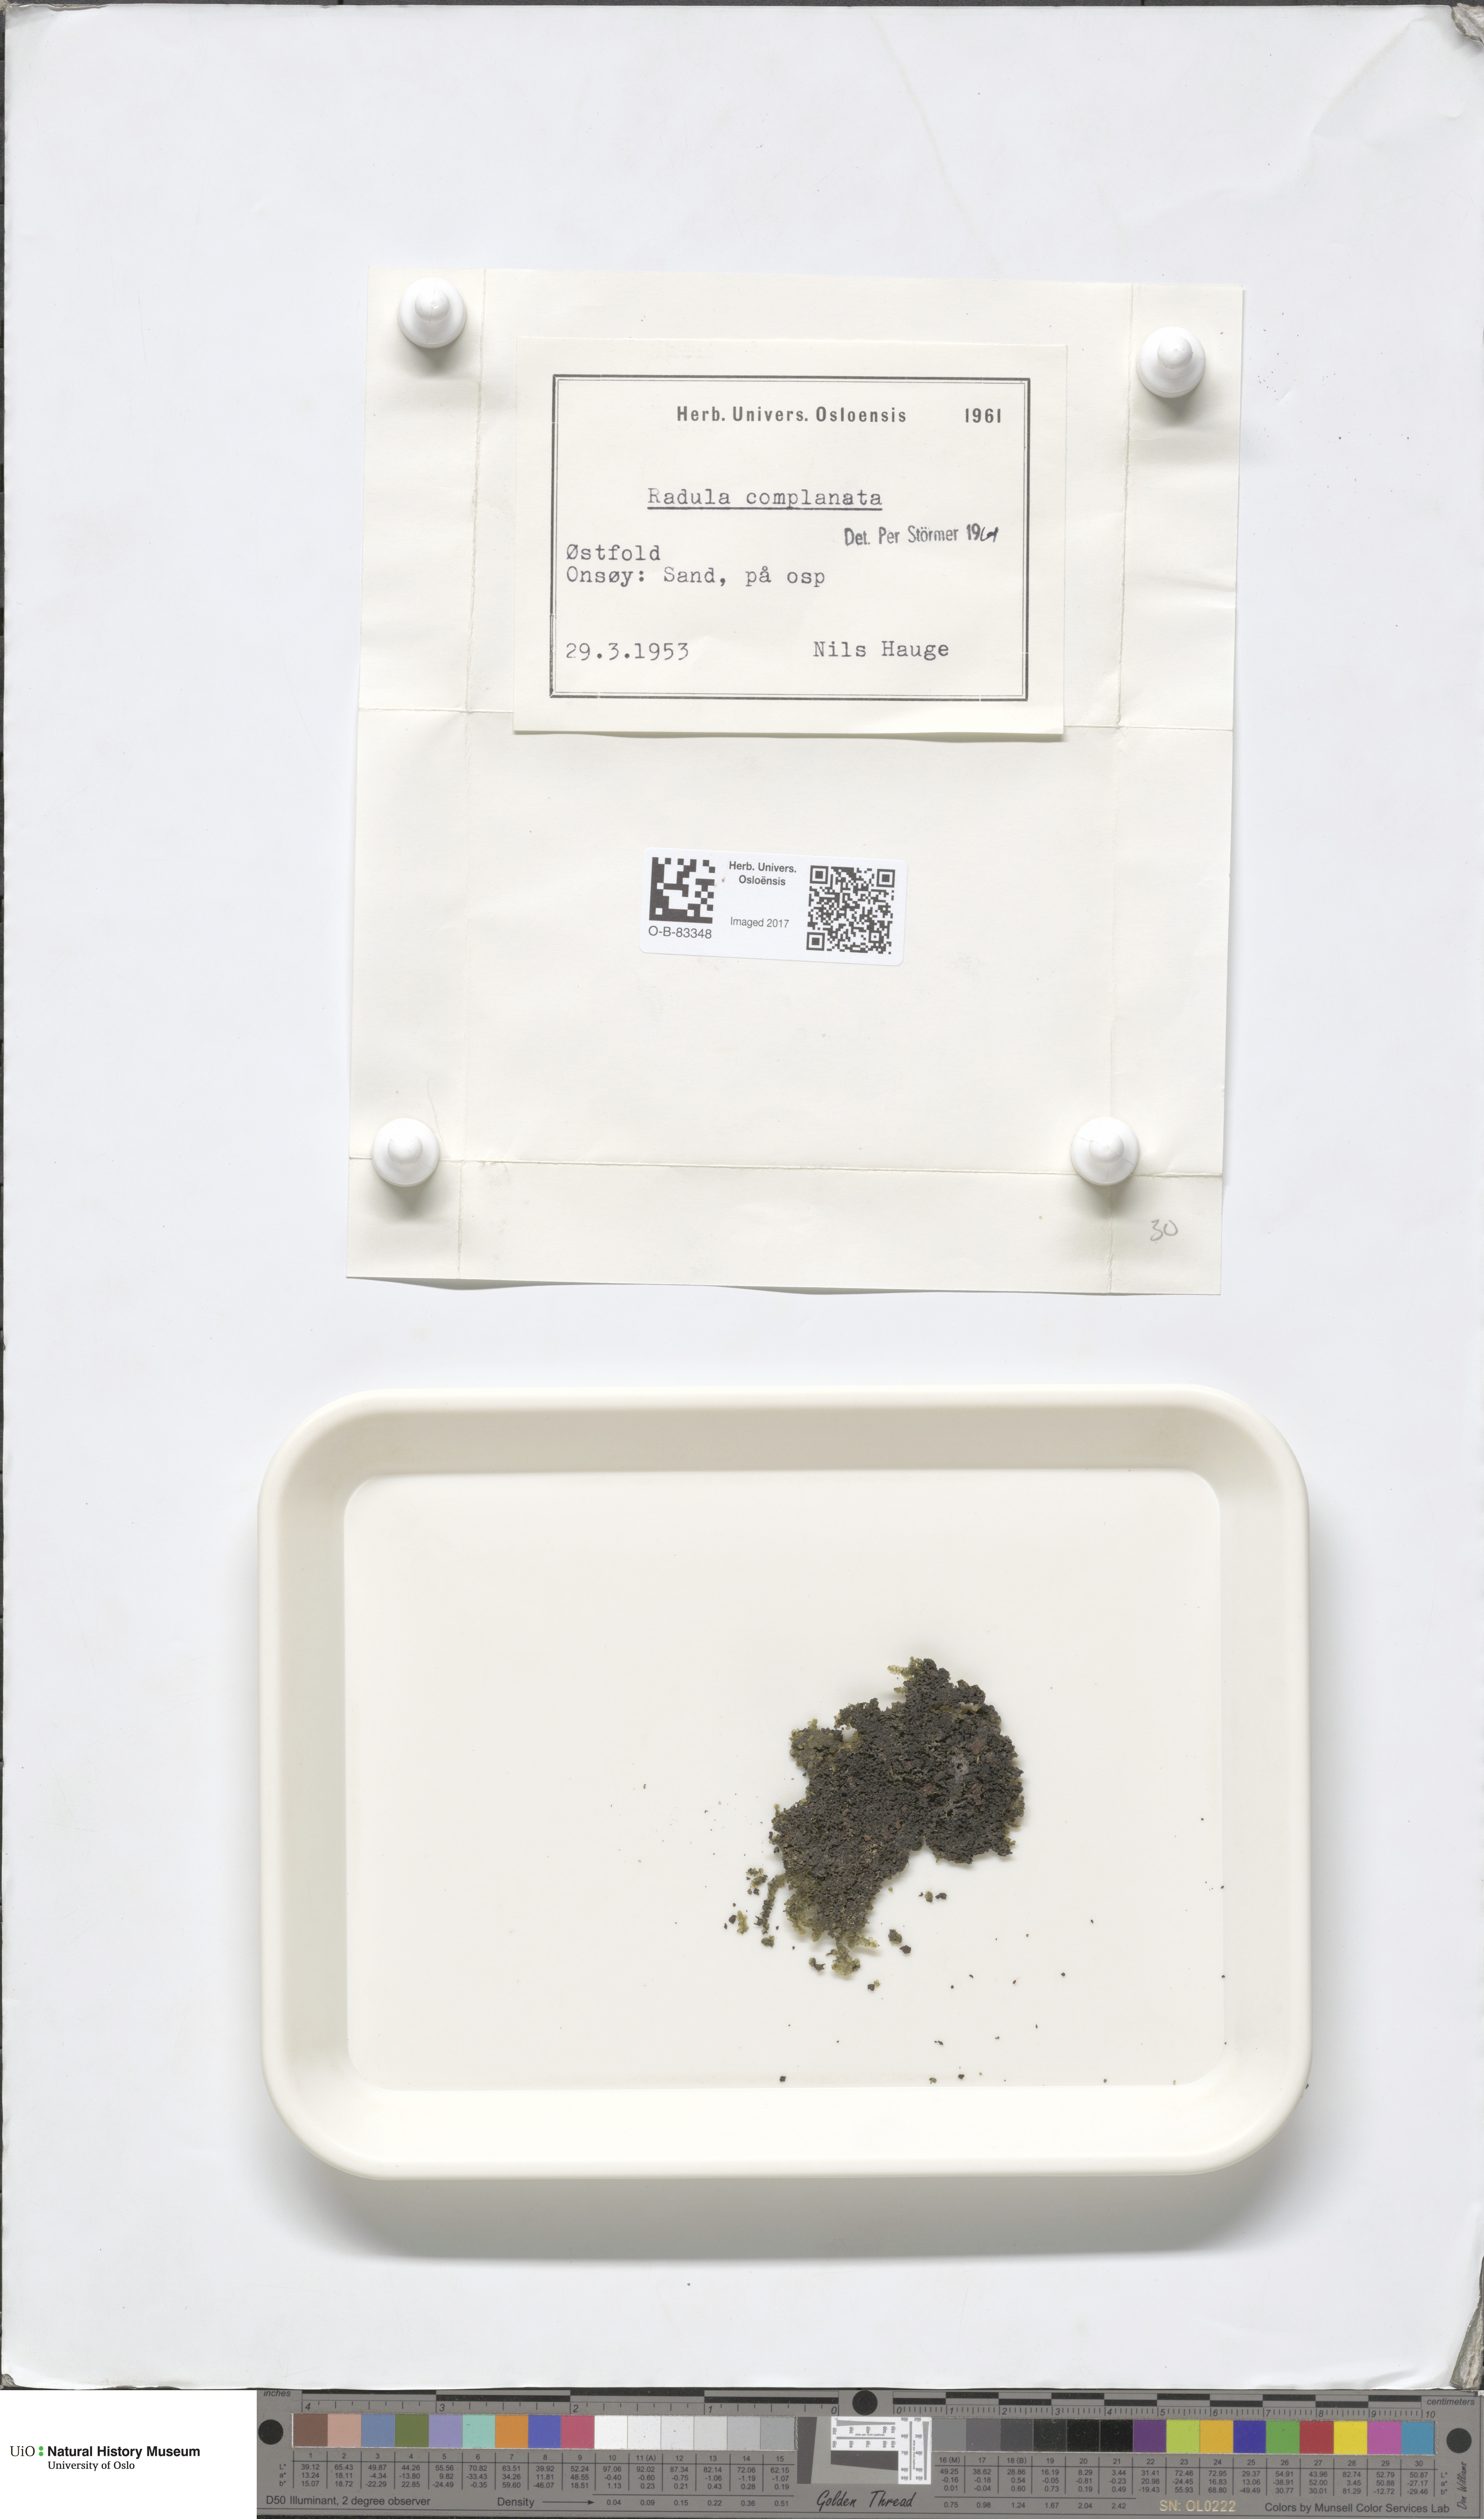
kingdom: Plantae
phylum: Marchantiophyta
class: Jungermanniopsida
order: Porellales
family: Radulaceae
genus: Radula
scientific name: Radula complanata
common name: Flat-leaved scalewort
